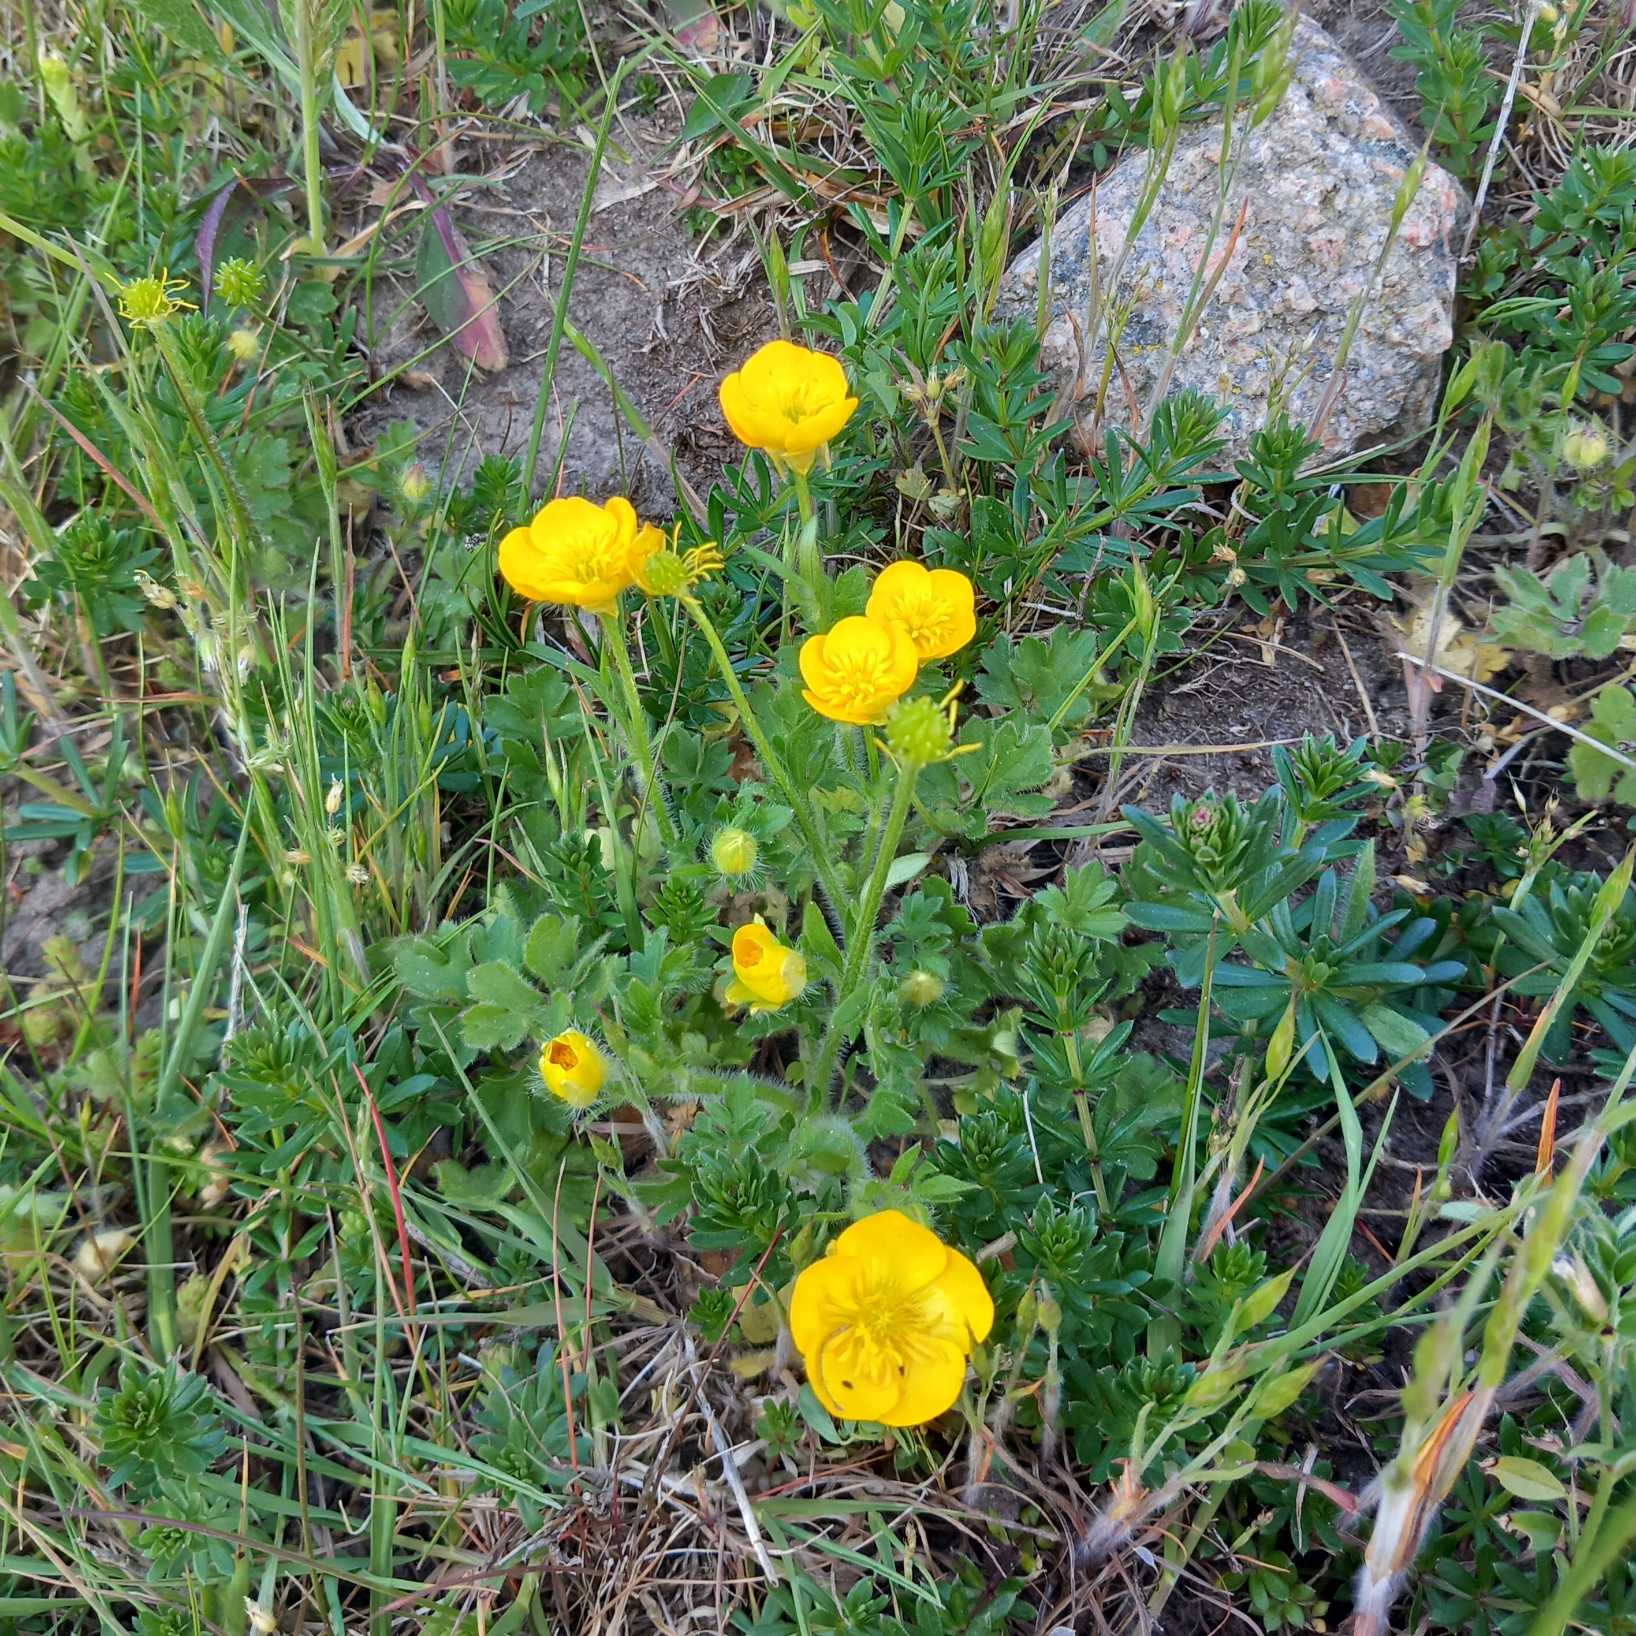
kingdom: Plantae
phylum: Tracheophyta
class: Magnoliopsida
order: Ranunculales
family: Ranunculaceae
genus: Ranunculus
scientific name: Ranunculus bulbosus
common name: Knold-ranunkel
